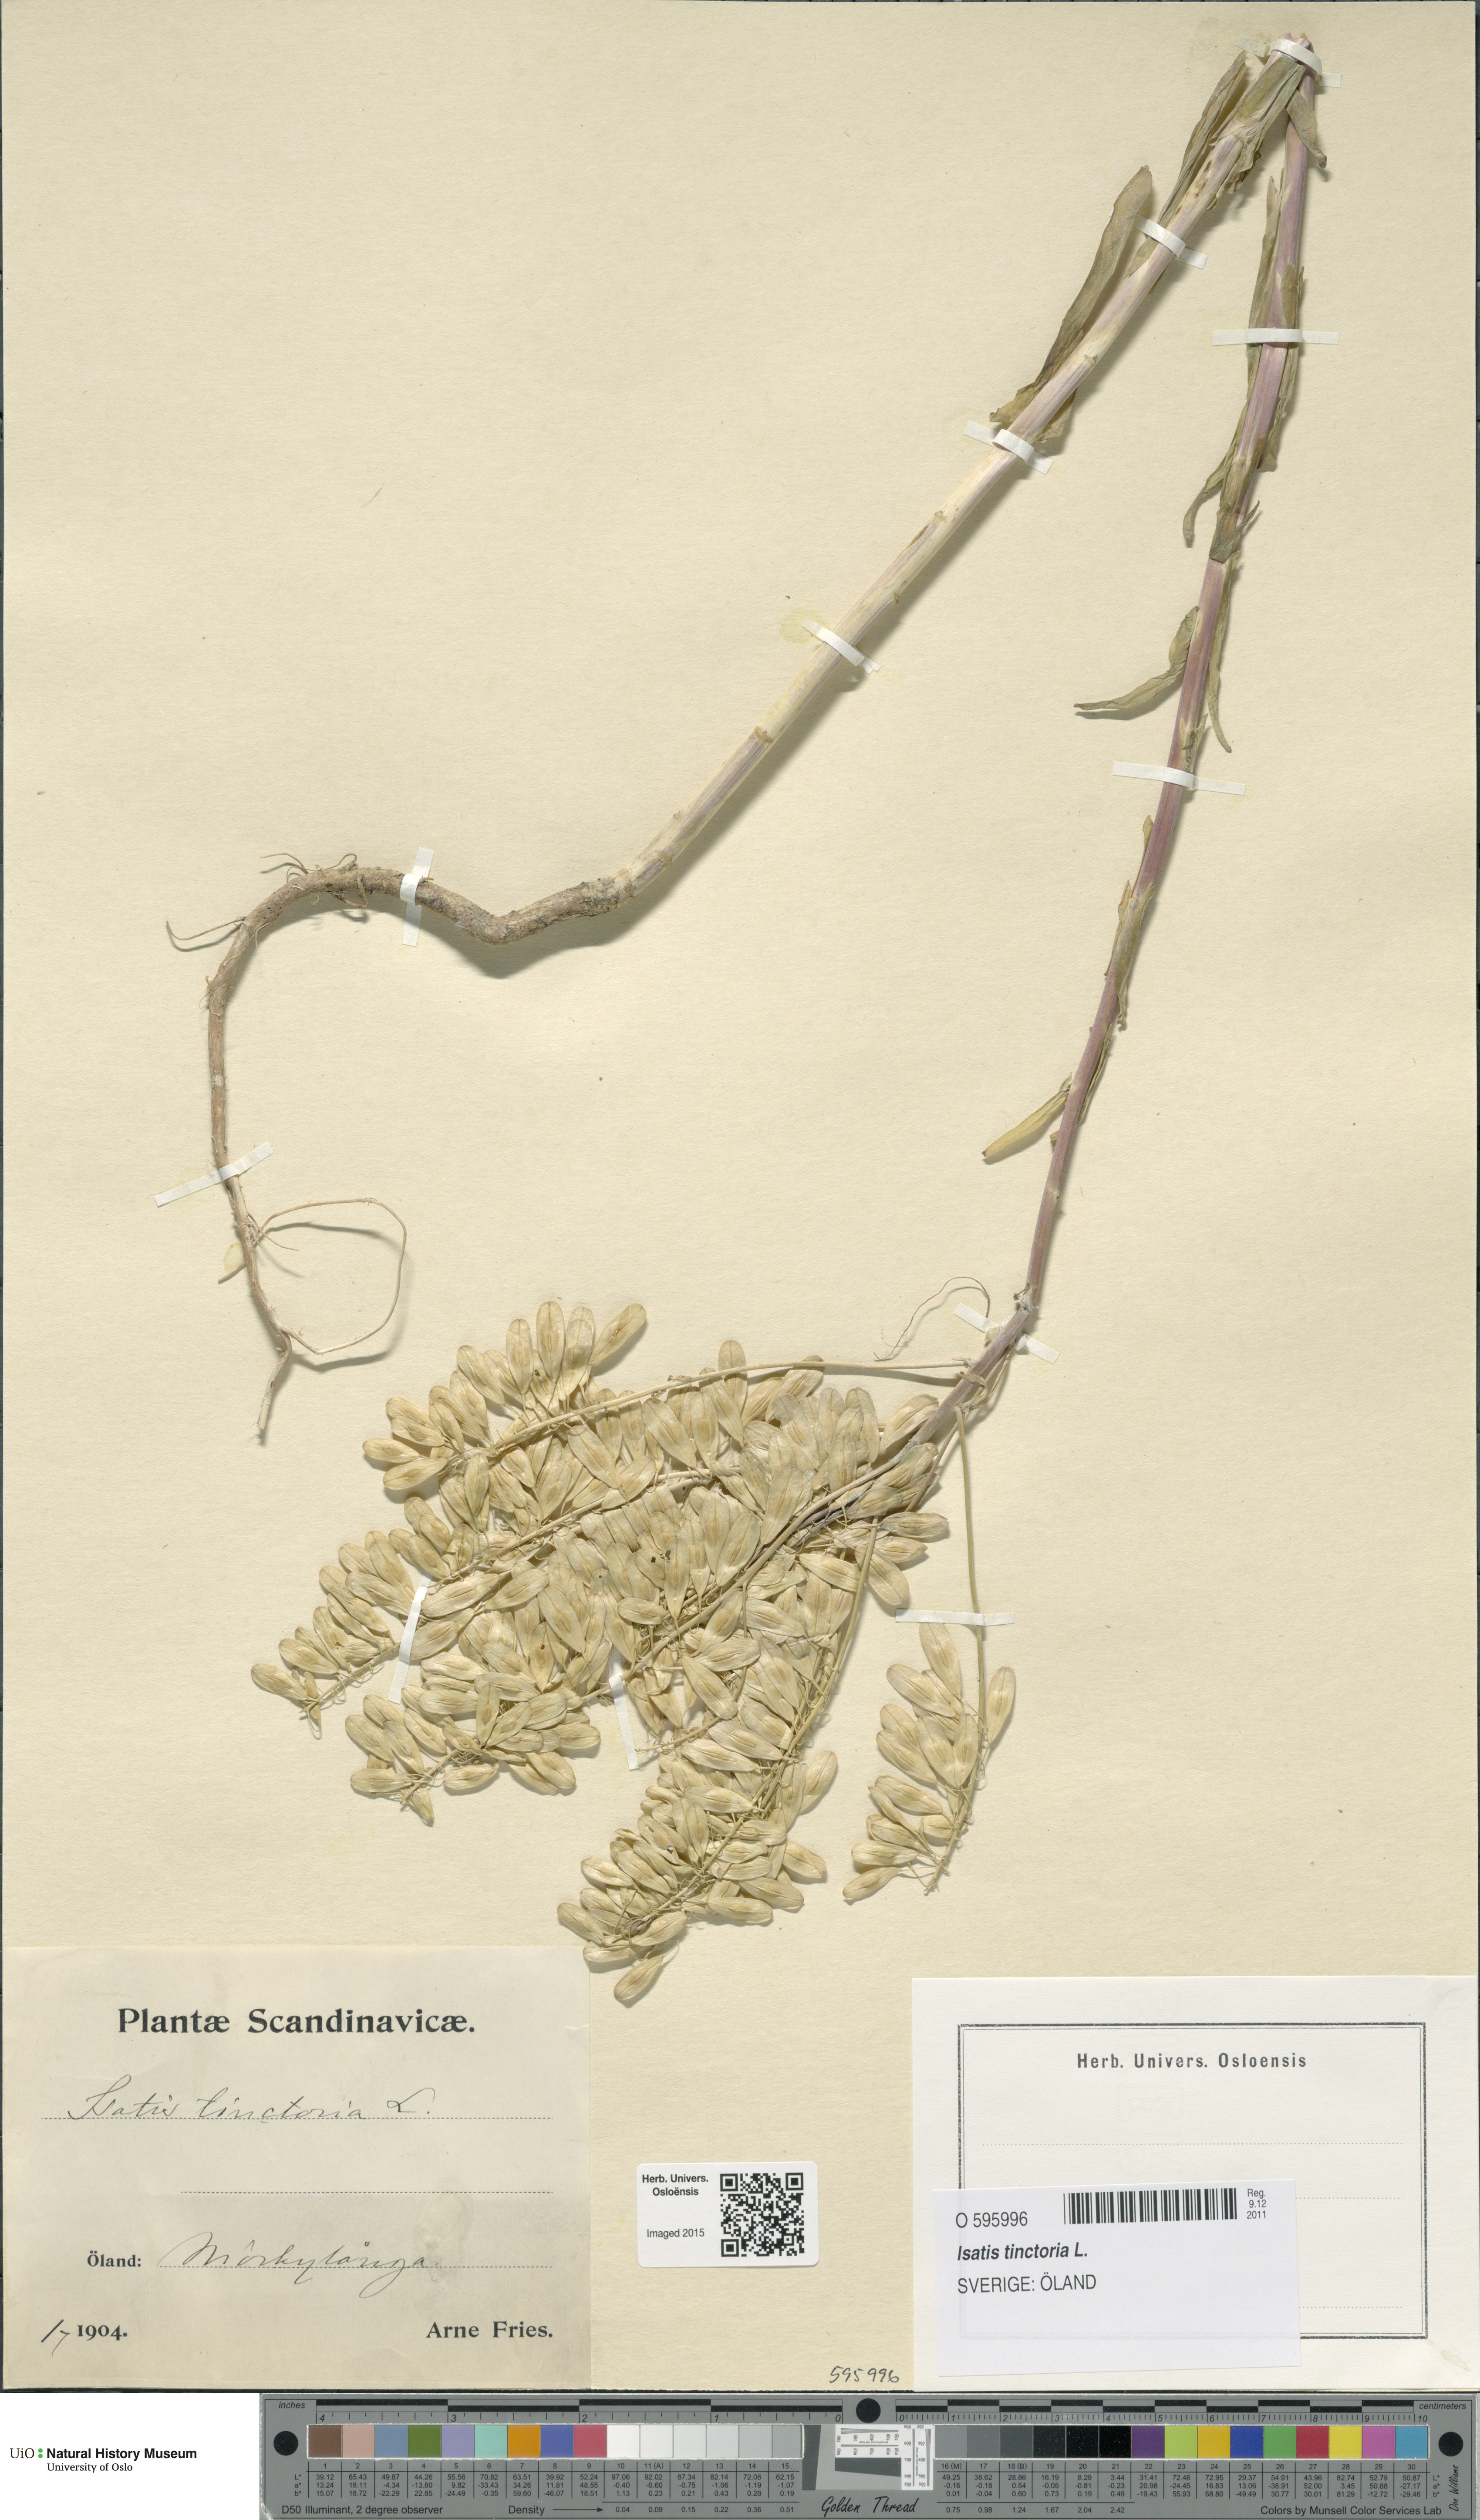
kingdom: Plantae
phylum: Tracheophyta
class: Magnoliopsida
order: Brassicales
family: Brassicaceae
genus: Isatis
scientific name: Isatis tinctoria
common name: Woad
